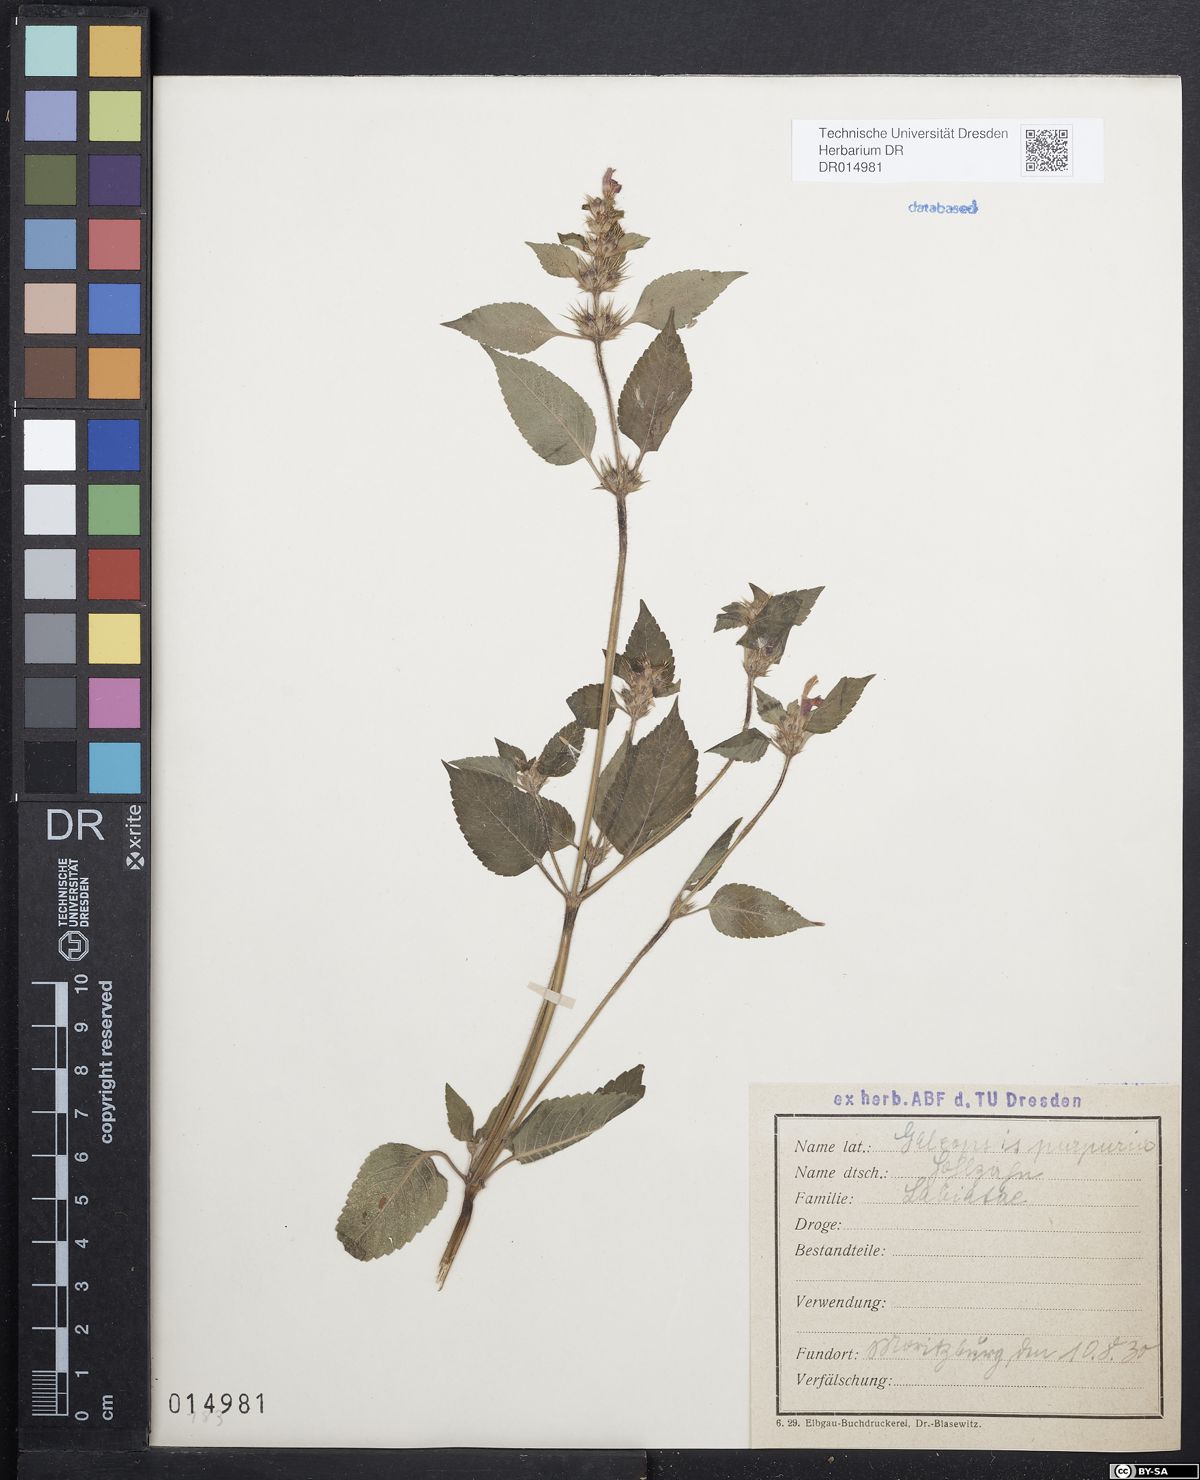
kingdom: Plantae
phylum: Tracheophyta
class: Magnoliopsida
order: Lamiales
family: Lamiaceae
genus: Galeopsis
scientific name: Galeopsis pubescens
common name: Downy hemp-nettle
